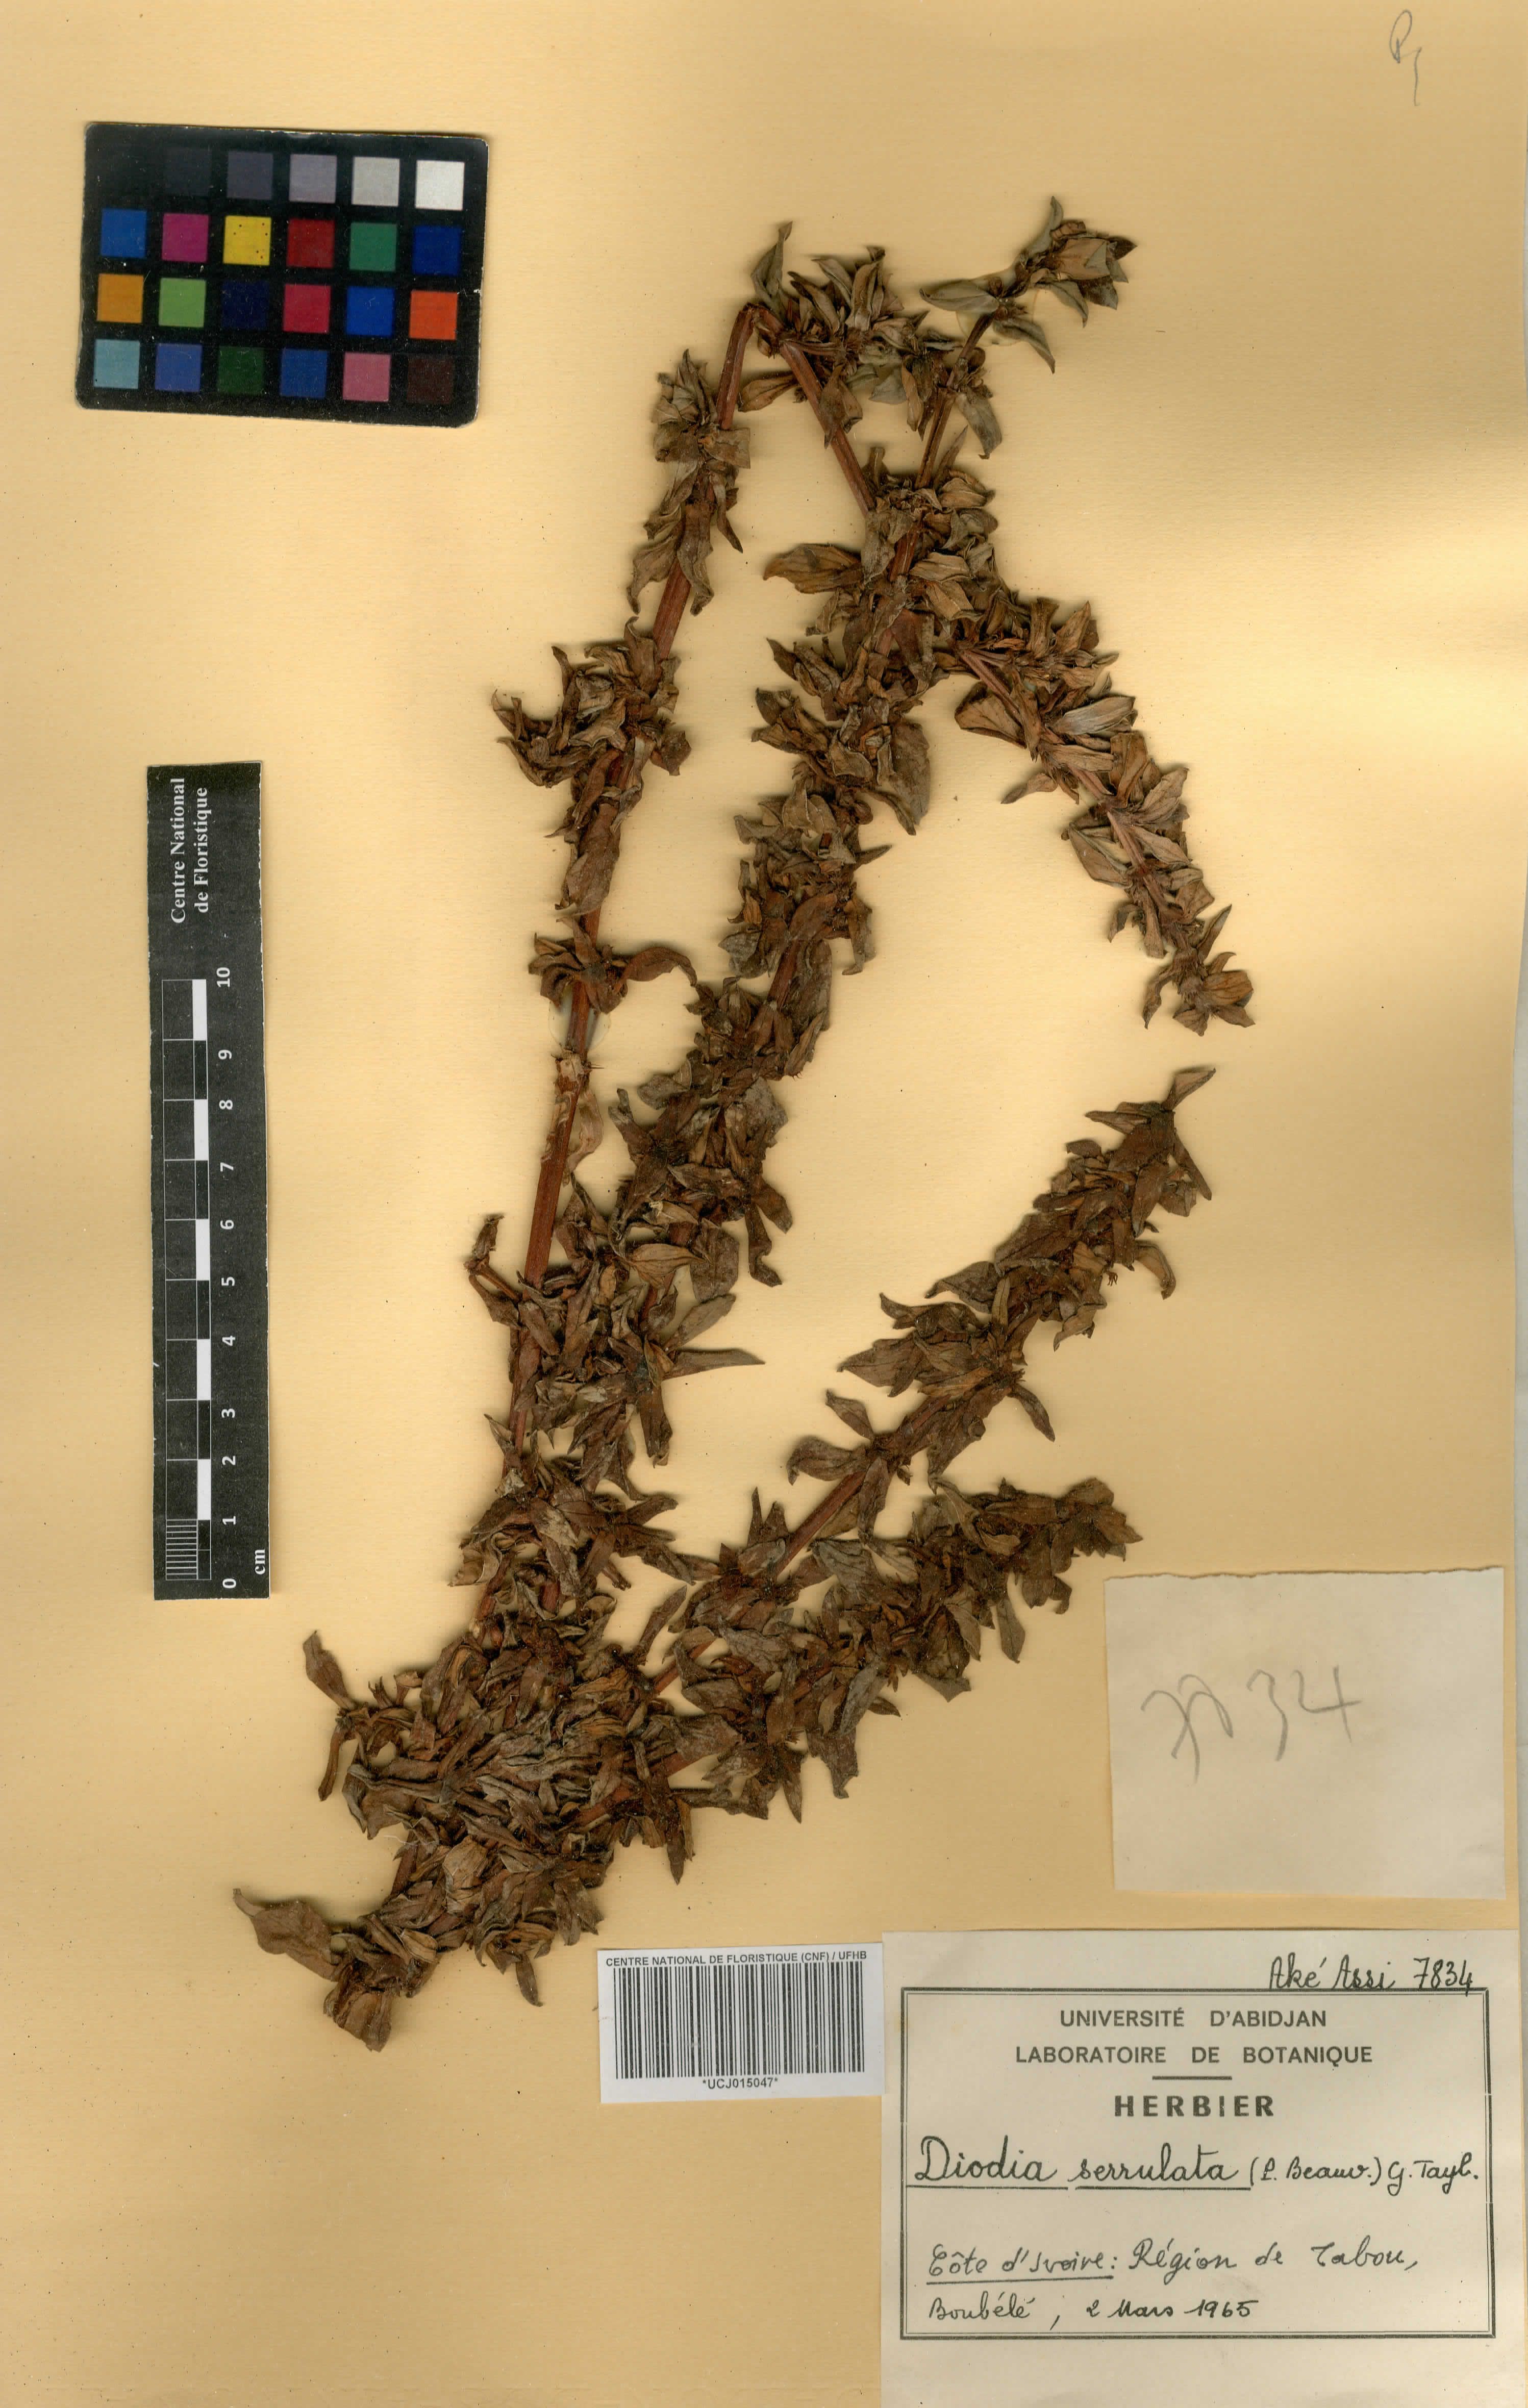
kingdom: Plantae
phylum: Tracheophyta
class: Magnoliopsida
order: Gentianales
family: Rubiaceae
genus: Hexasepalum
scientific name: Hexasepalum serrulatum
